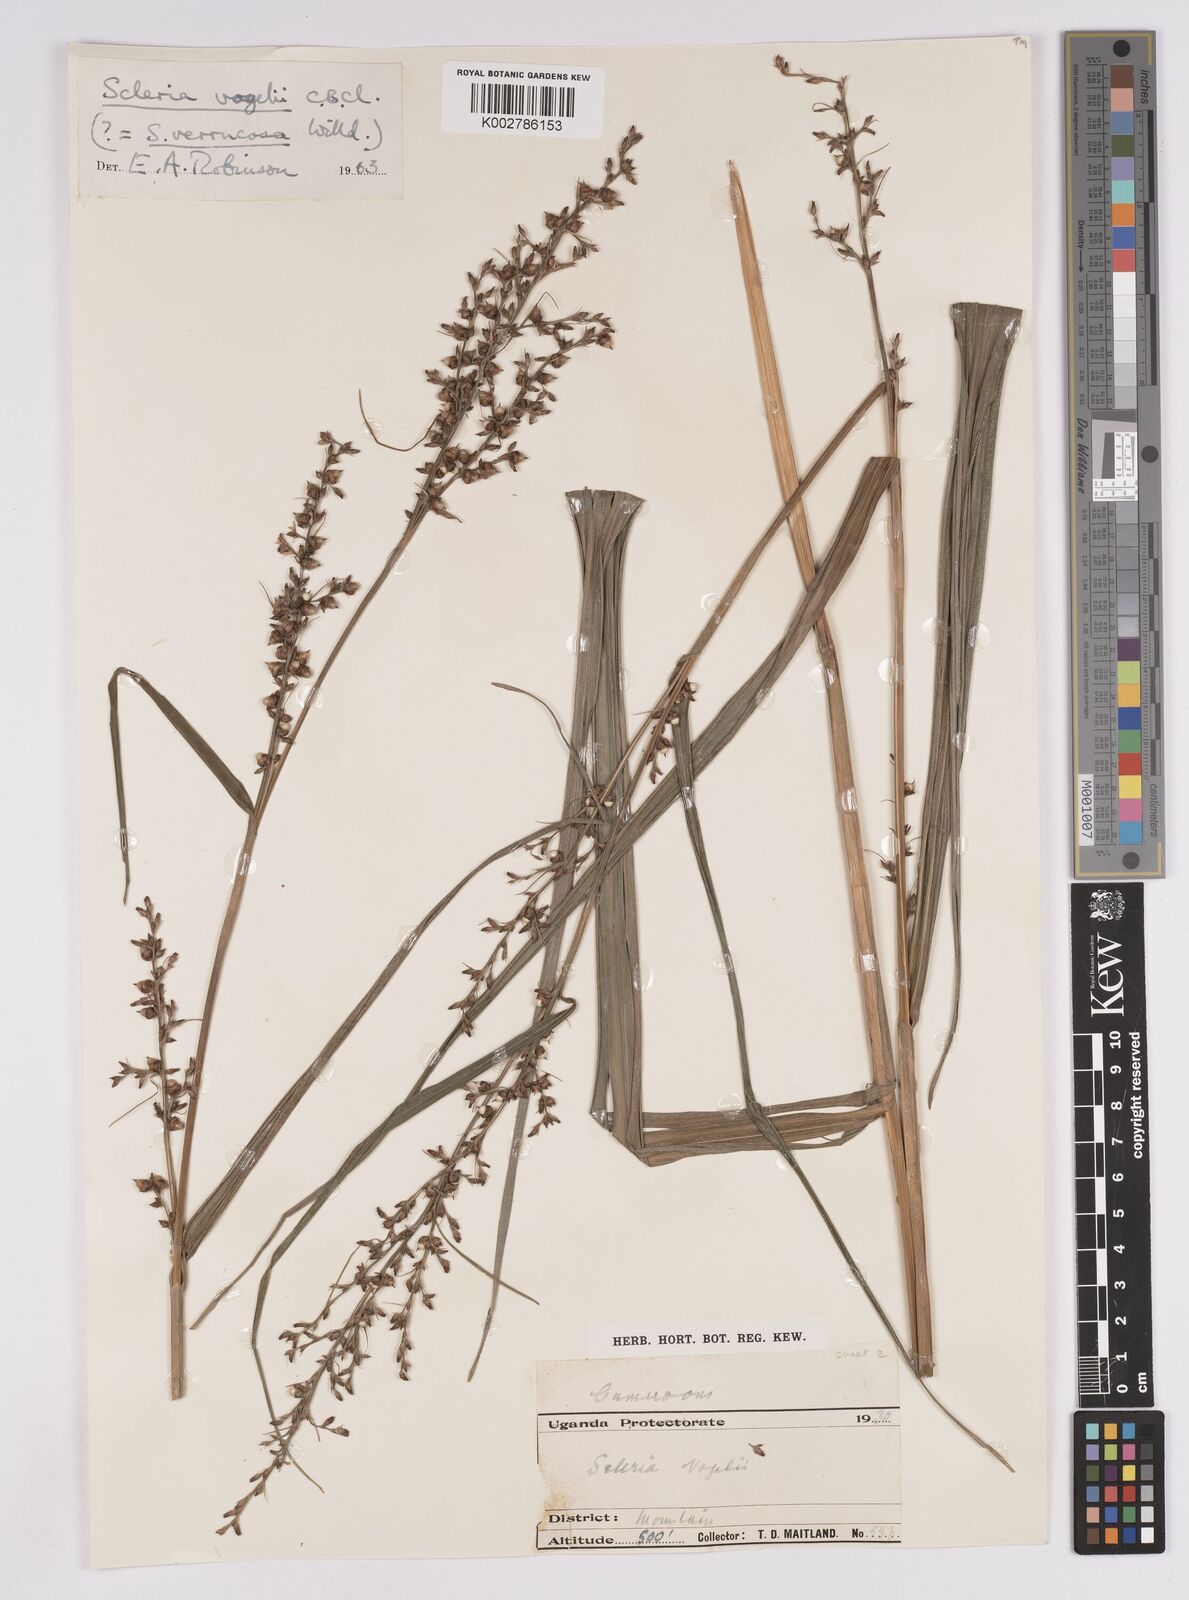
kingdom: Plantae
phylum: Tracheophyta
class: Liliopsida
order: Poales
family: Cyperaceae
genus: Scleria
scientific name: Scleria vogelii
